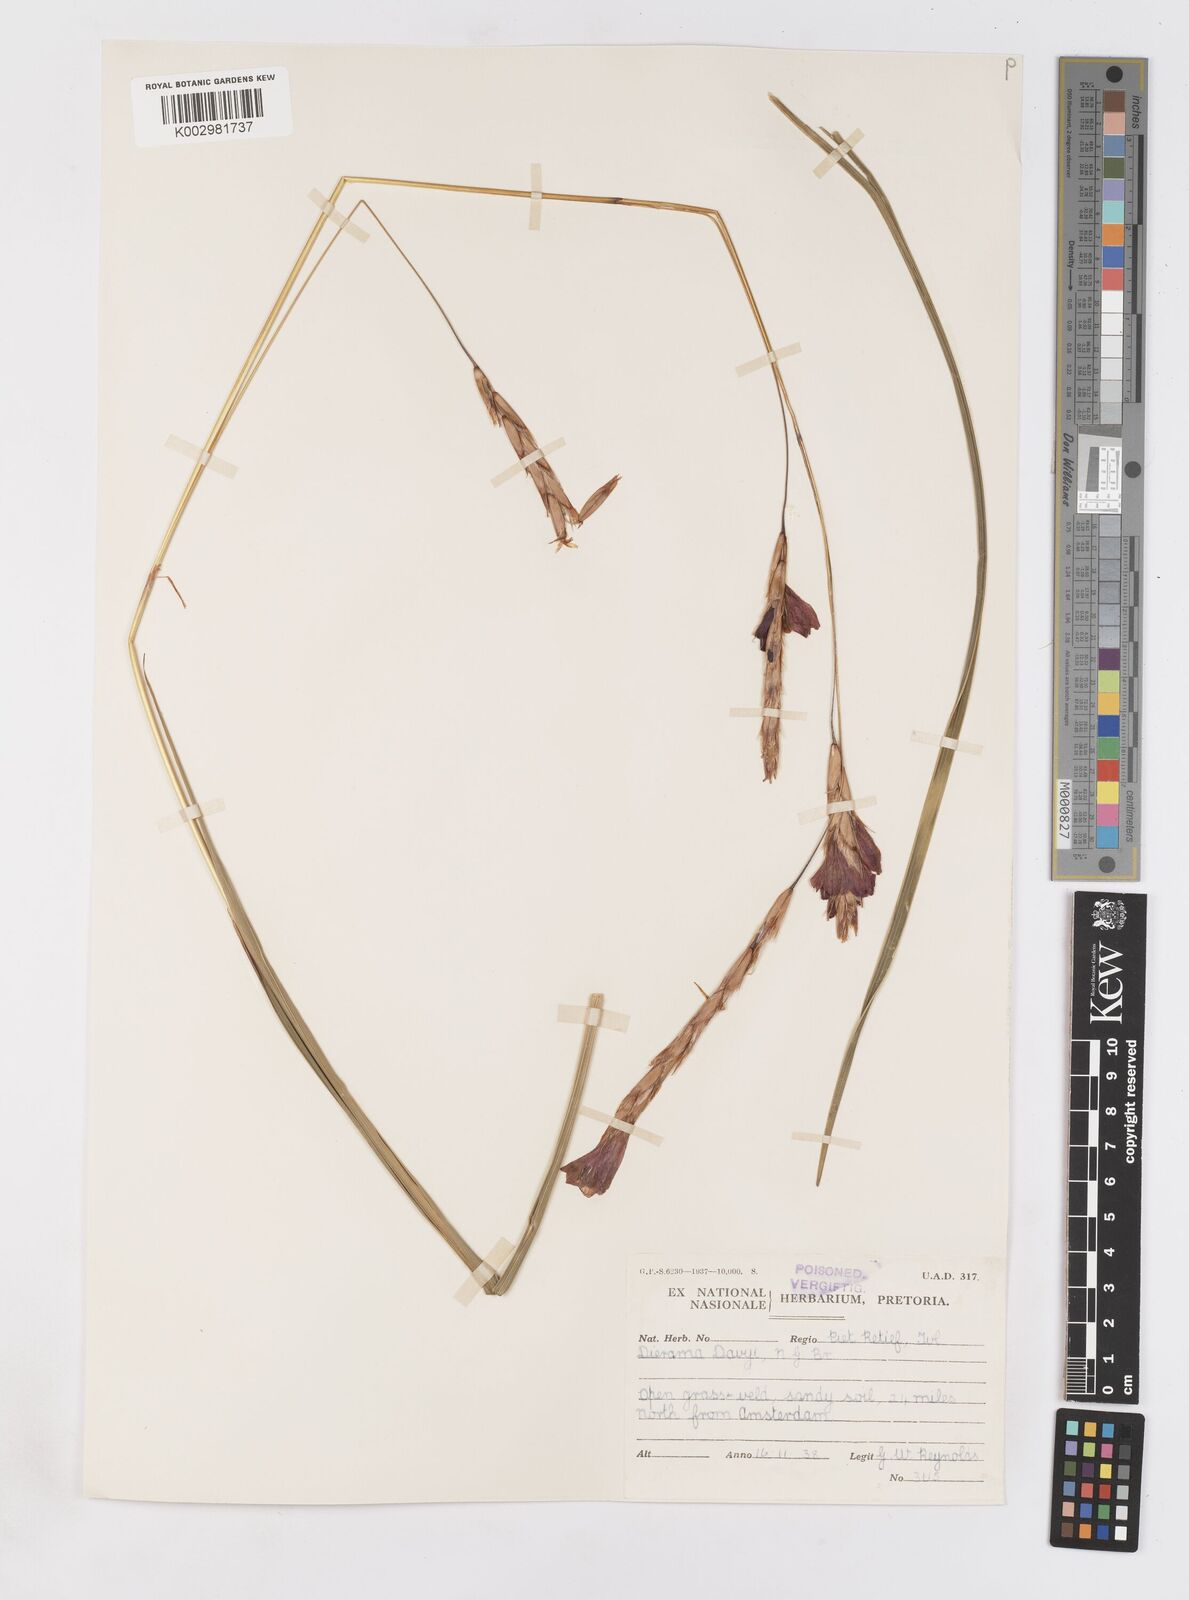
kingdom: Plantae
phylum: Tracheophyta
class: Liliopsida
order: Asparagales
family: Iridaceae
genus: Dierama
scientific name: Dierama insigne
